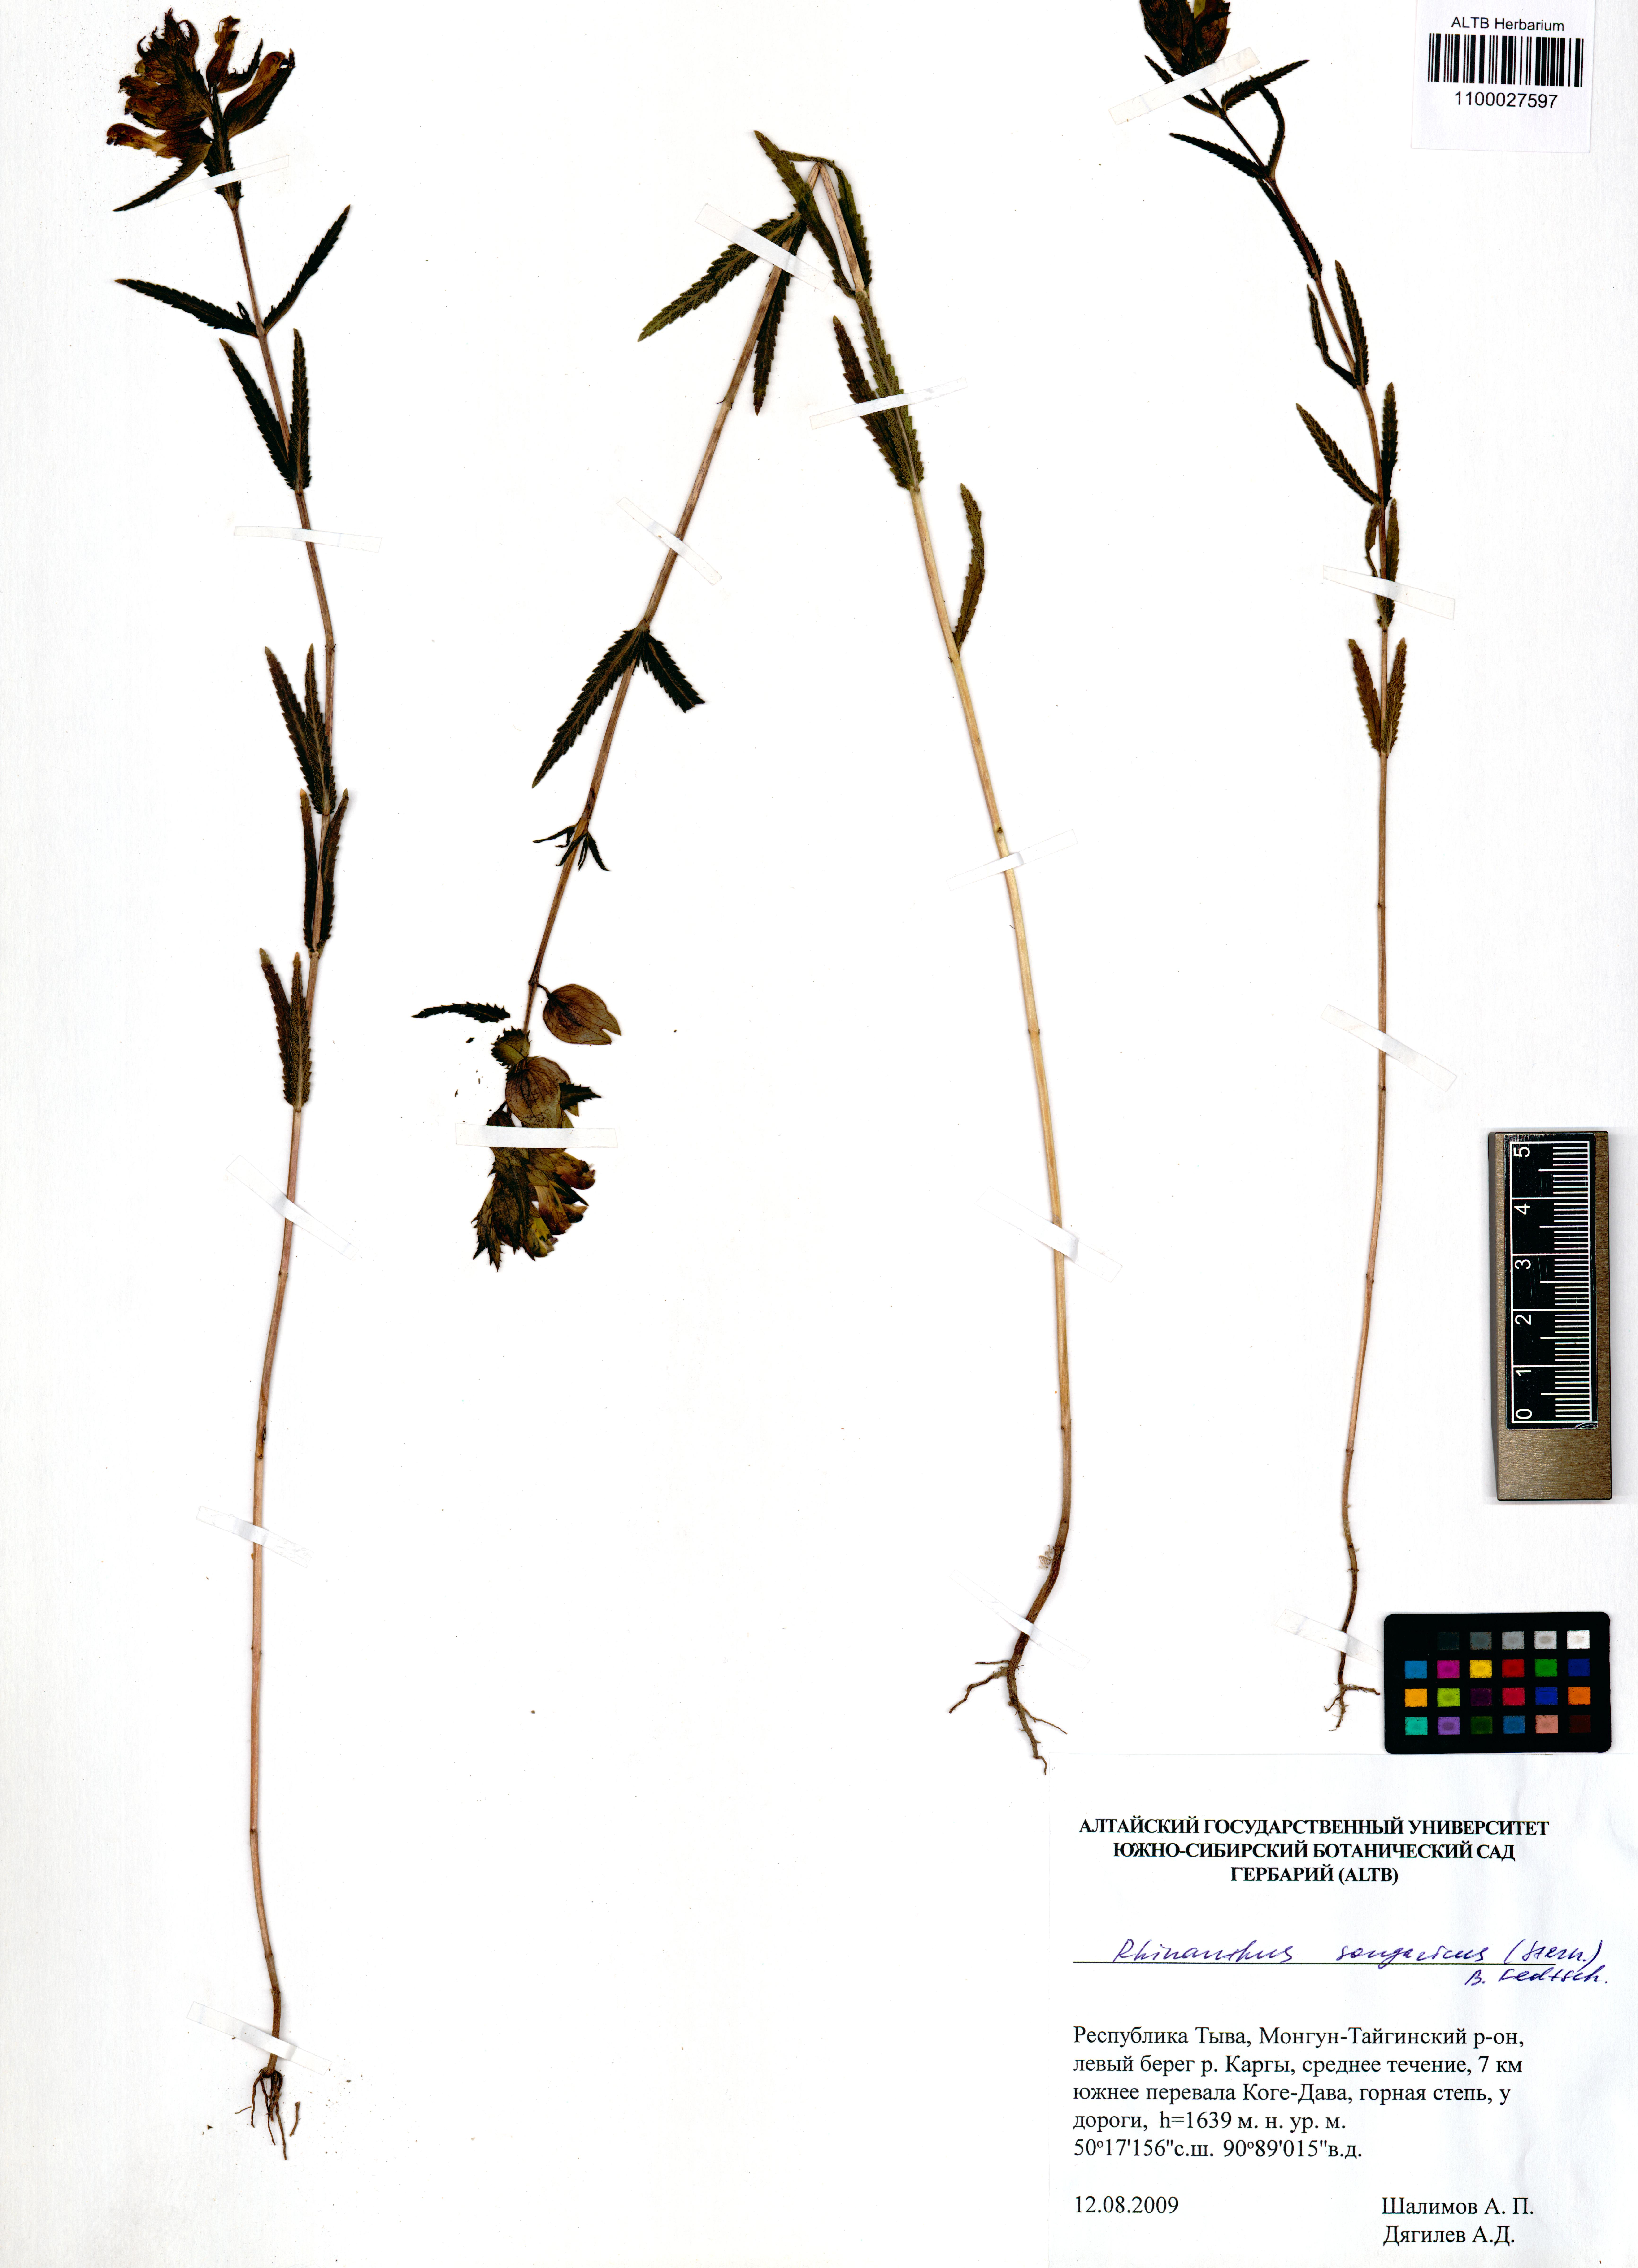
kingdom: Plantae
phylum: Tracheophyta
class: Magnoliopsida
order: Lamiales
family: Orobanchaceae
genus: Rhinanthus
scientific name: Rhinanthus songaricus
